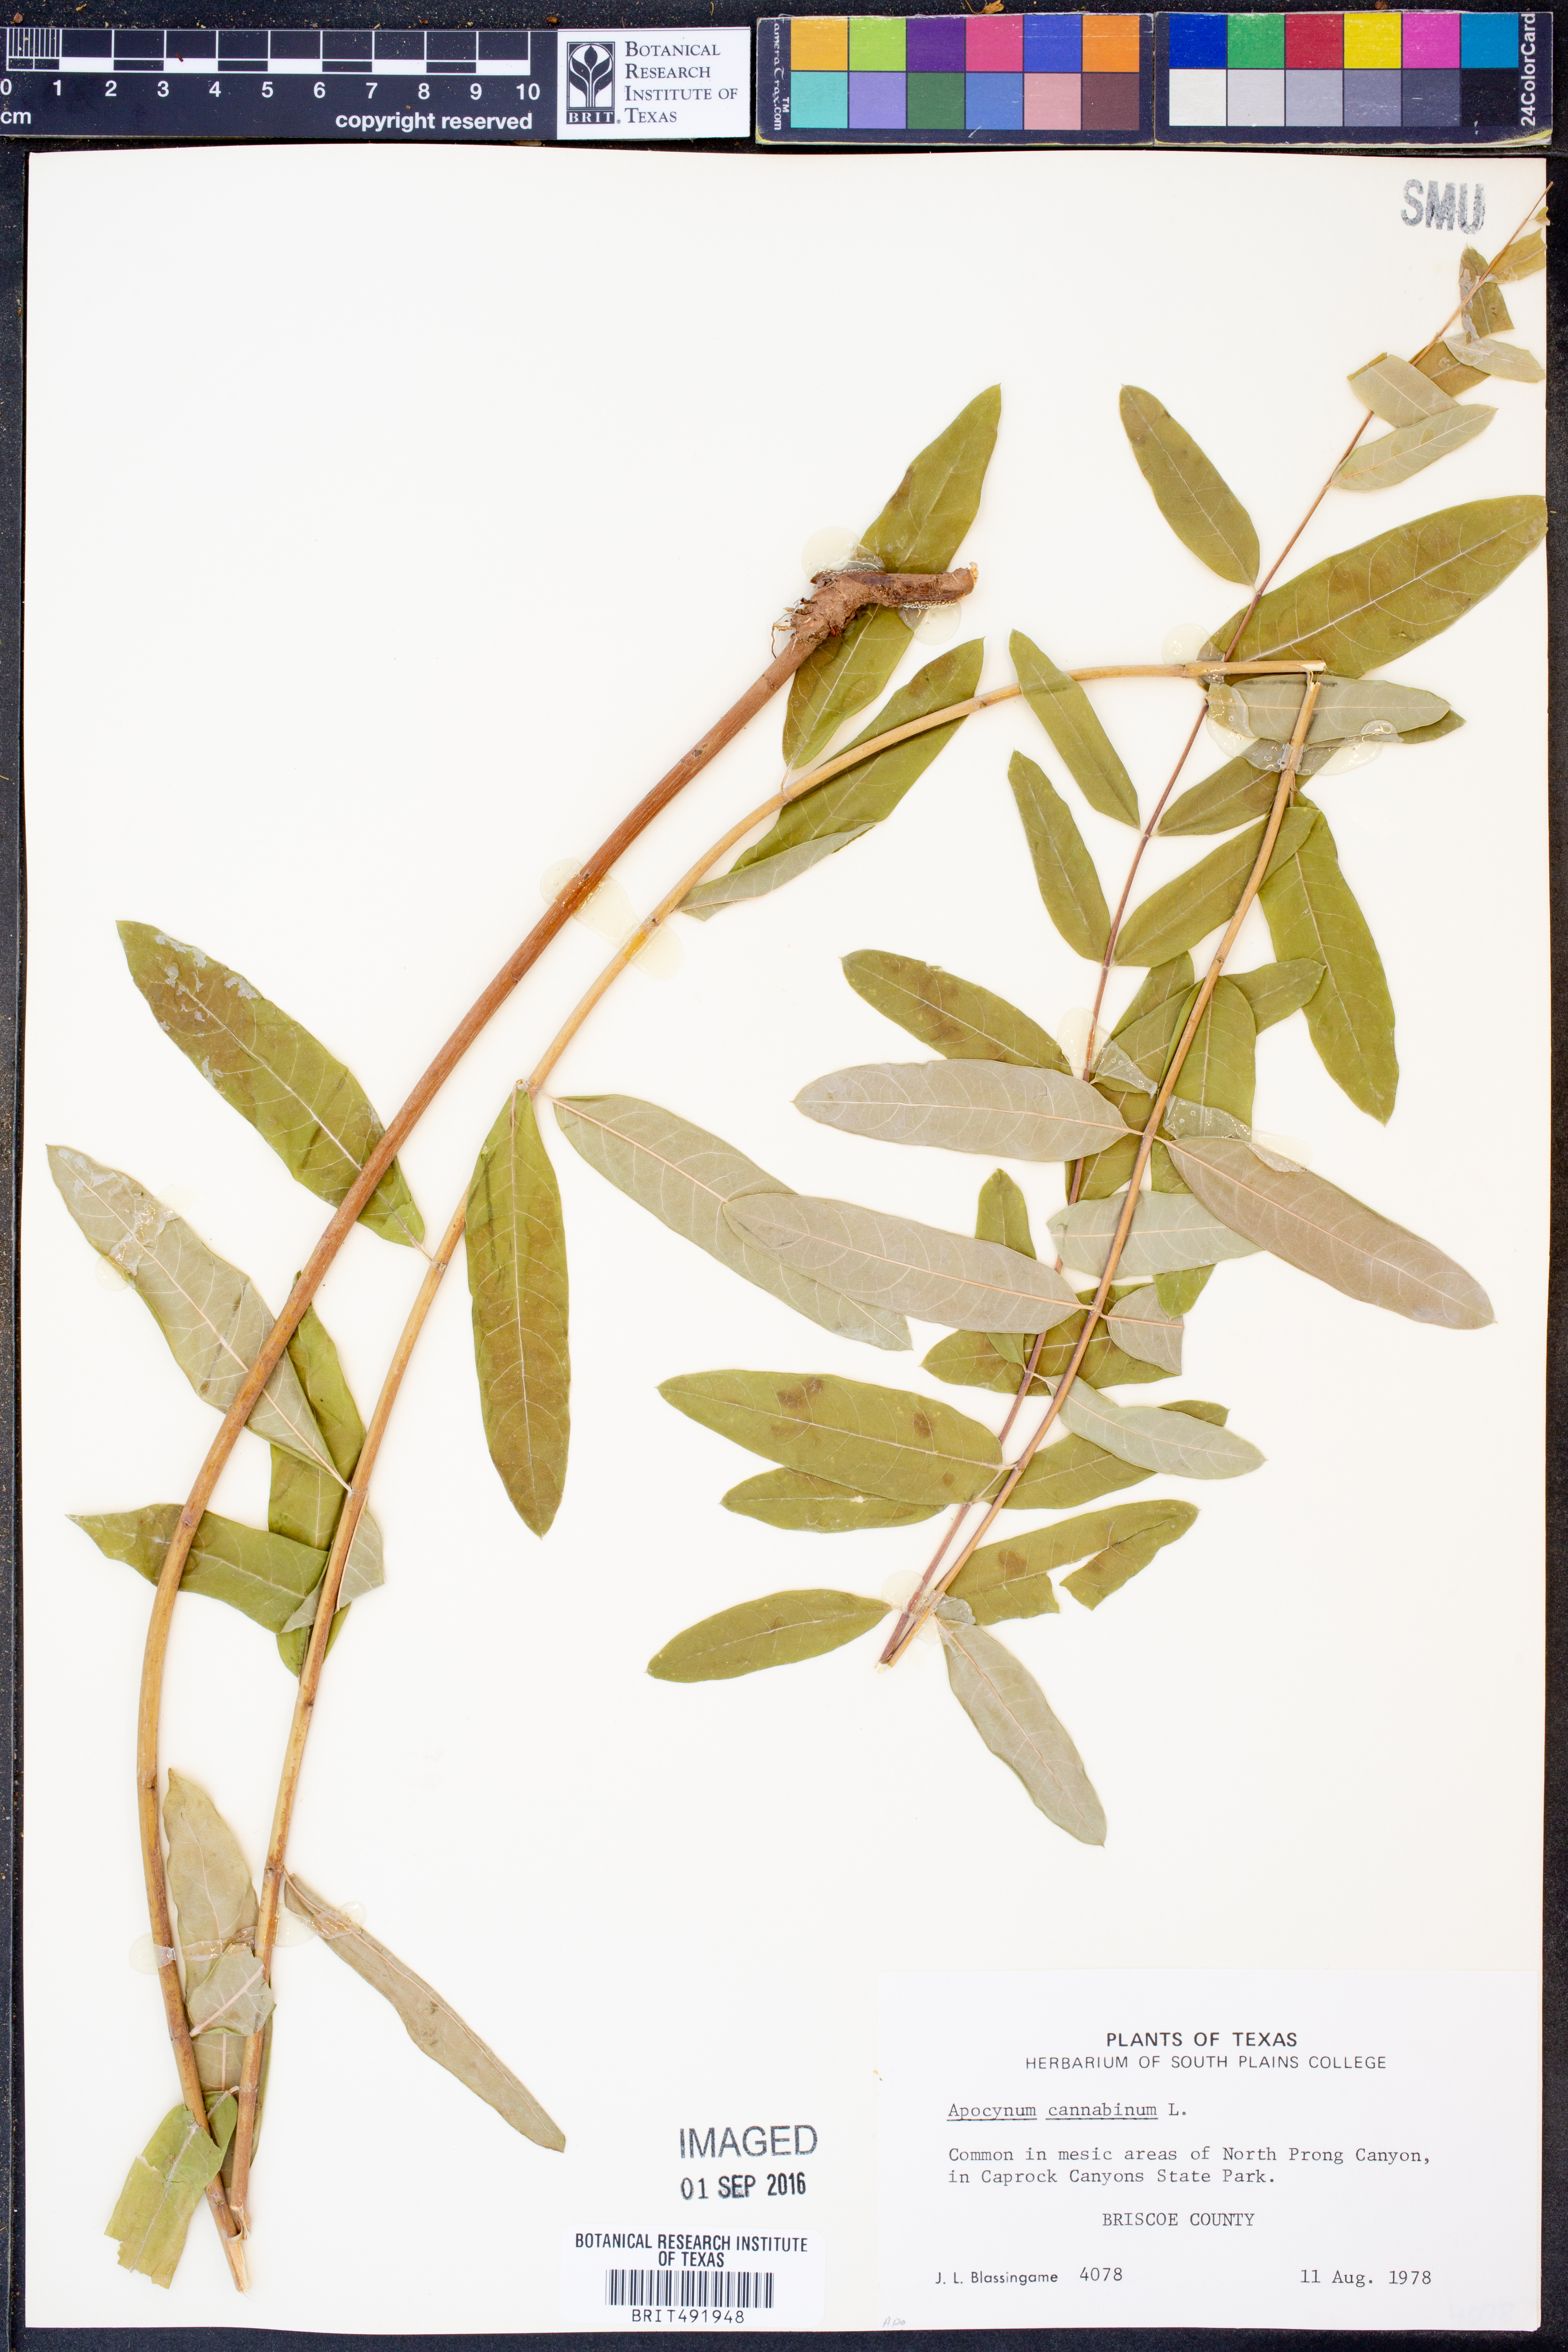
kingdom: Plantae
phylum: Tracheophyta
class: Magnoliopsida
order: Gentianales
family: Apocynaceae
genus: Apocynum
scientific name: Apocynum cannabinum
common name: Hemp dogbane
